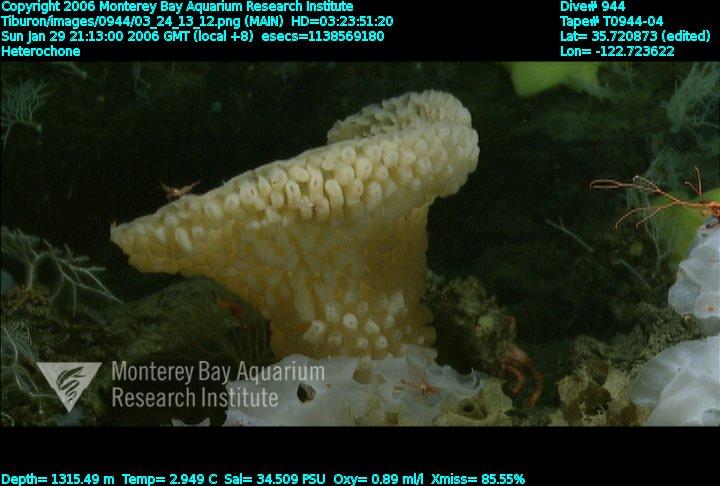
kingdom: Animalia
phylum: Porifera
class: Hexactinellida
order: Sceptrulophora
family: Aphrocallistidae
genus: Heterochone
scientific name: Heterochone
